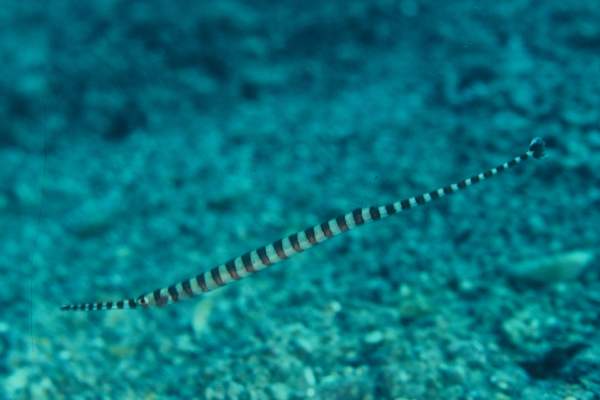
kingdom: Animalia
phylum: Chordata
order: Syngnathiformes
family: Syngnathidae
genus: Dunckerocampus
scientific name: Dunckerocampus dactyliophorus
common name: Banded pipefish
